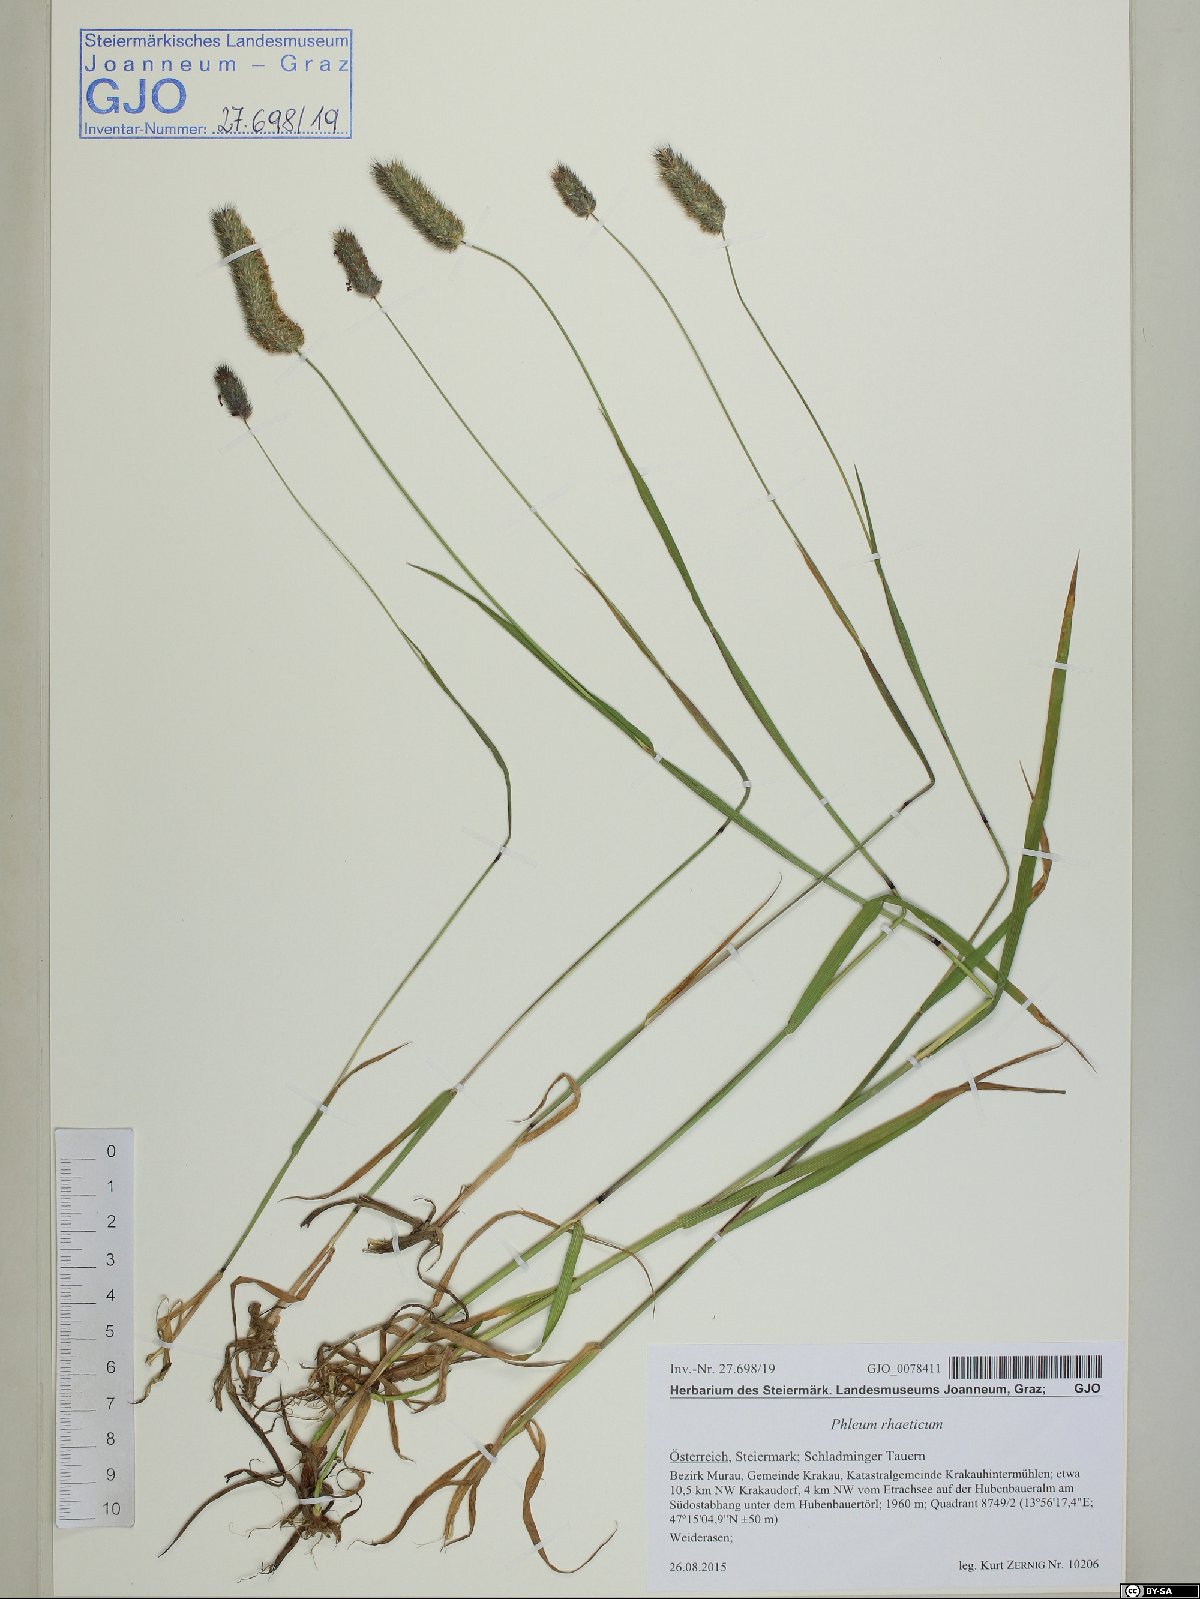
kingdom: Plantae
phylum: Tracheophyta
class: Liliopsida
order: Poales
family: Poaceae
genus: Phleum
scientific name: Phleum alpinum
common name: Alpine cat's-tail
